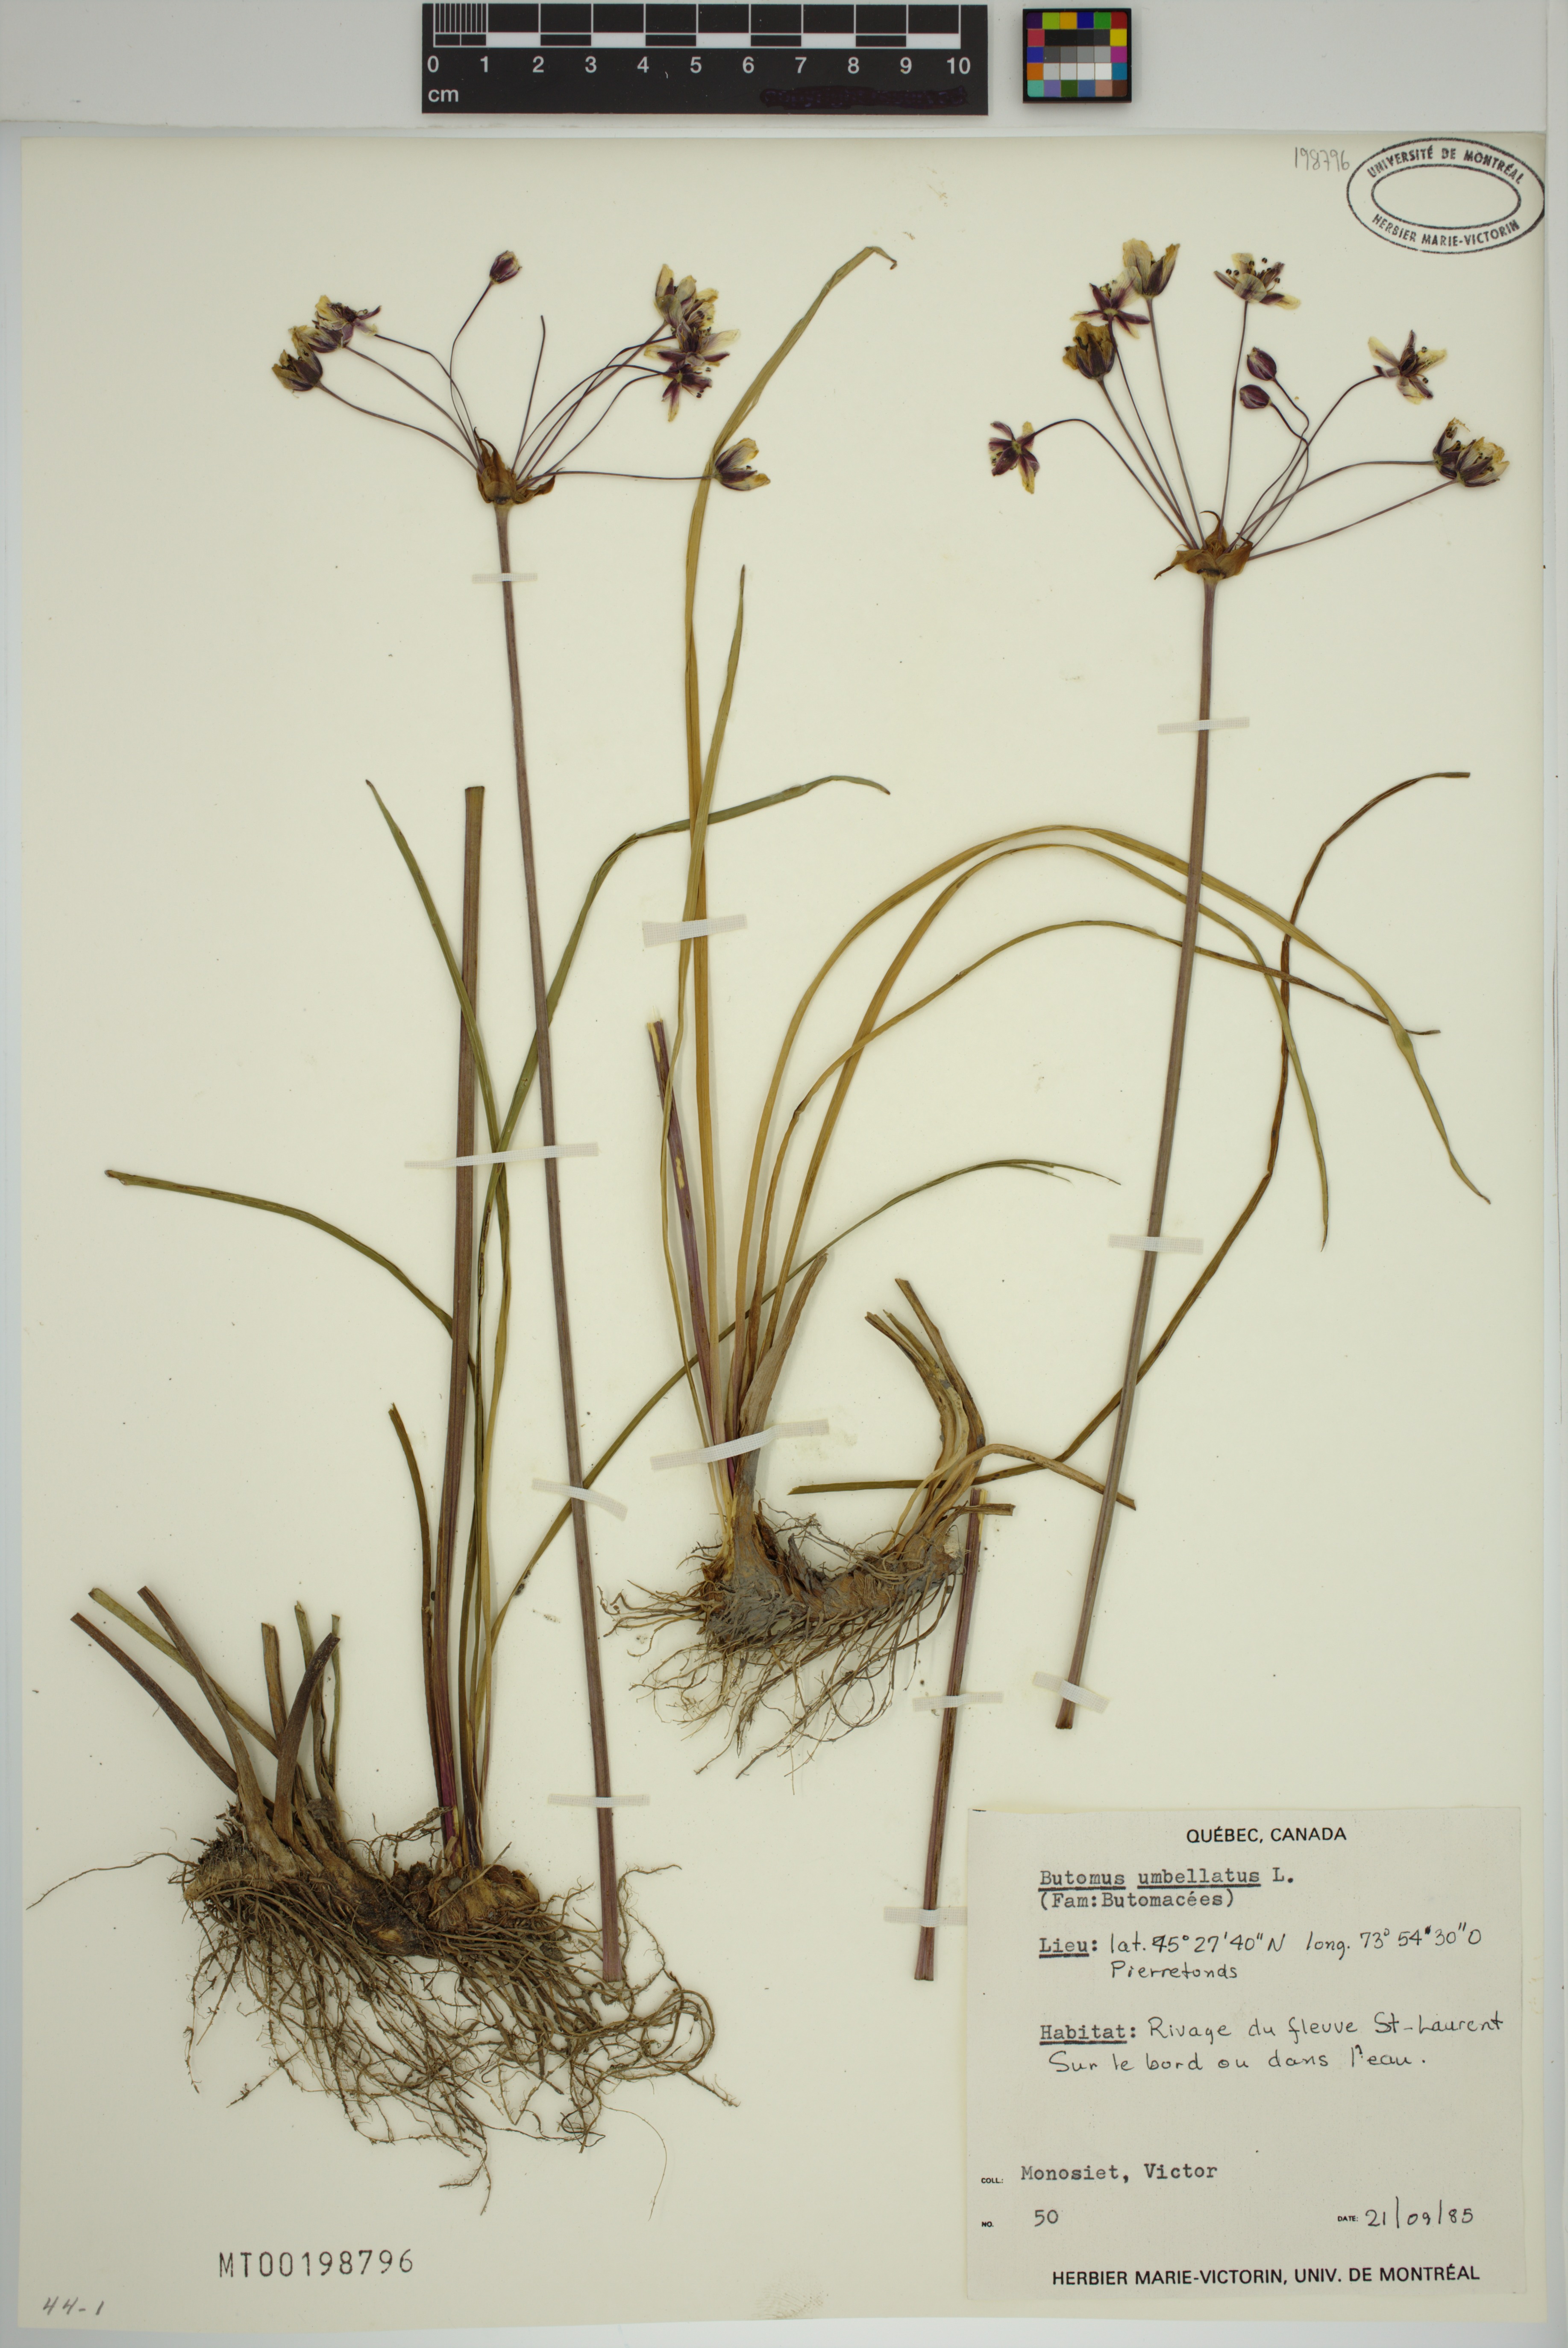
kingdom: Plantae
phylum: Tracheophyta
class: Liliopsida
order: Alismatales
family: Butomaceae
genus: Butomus
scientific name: Butomus umbellatus
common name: Flowering-rush
